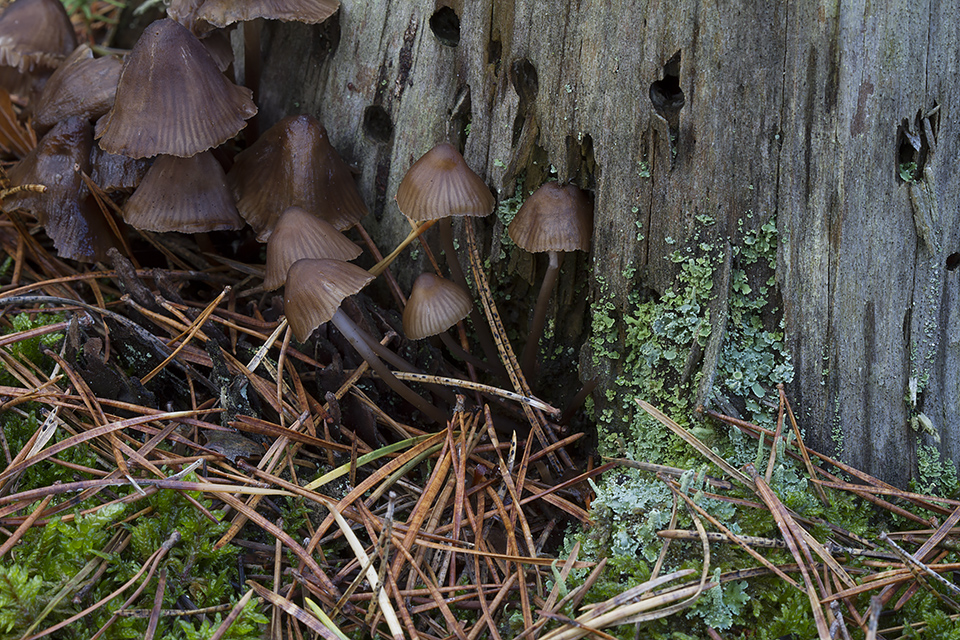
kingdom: Fungi
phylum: Basidiomycota
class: Agaricomycetes
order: Agaricales
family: Mycenaceae
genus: Mycena
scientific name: Mycena stipata
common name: stinkende huesvamp
